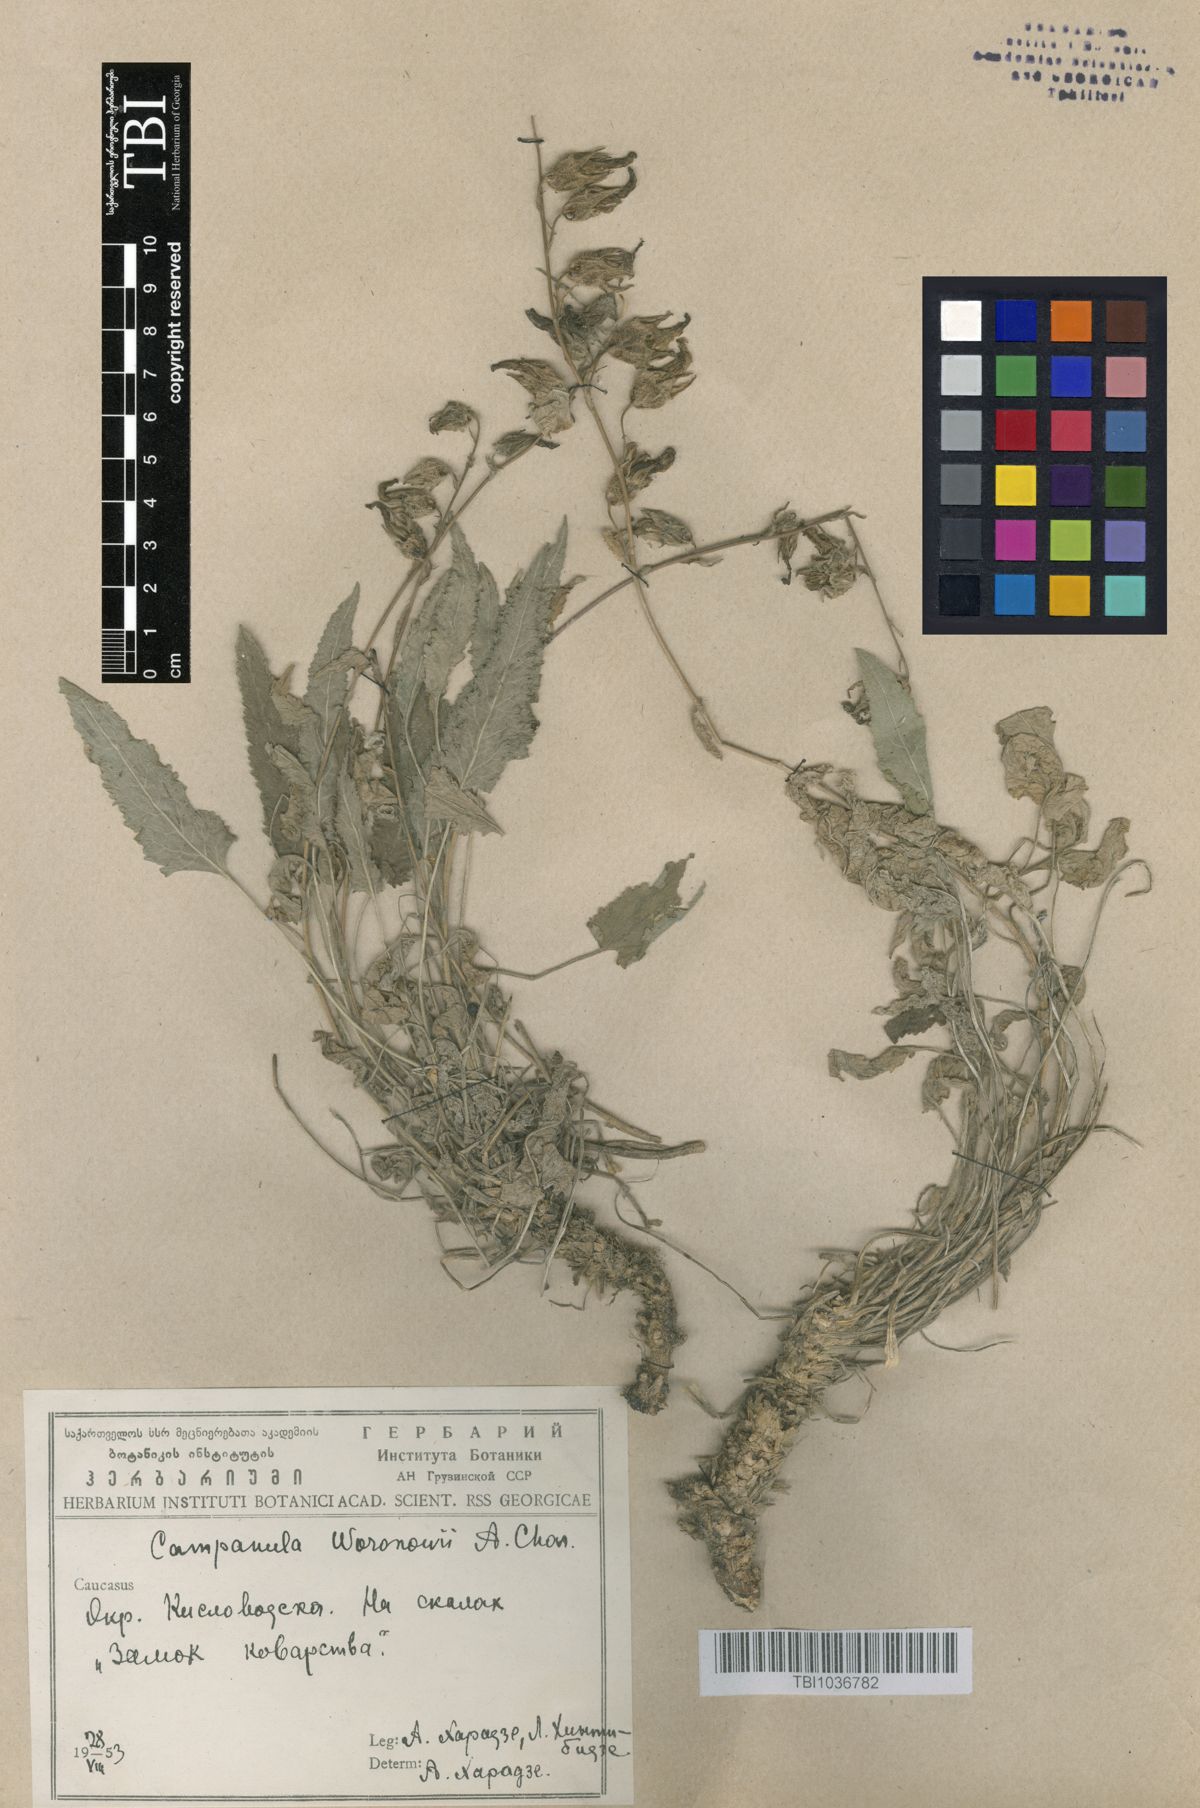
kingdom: Plantae
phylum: Tracheophyta
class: Magnoliopsida
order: Asterales
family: Campanulaceae
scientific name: Campanulaceae
